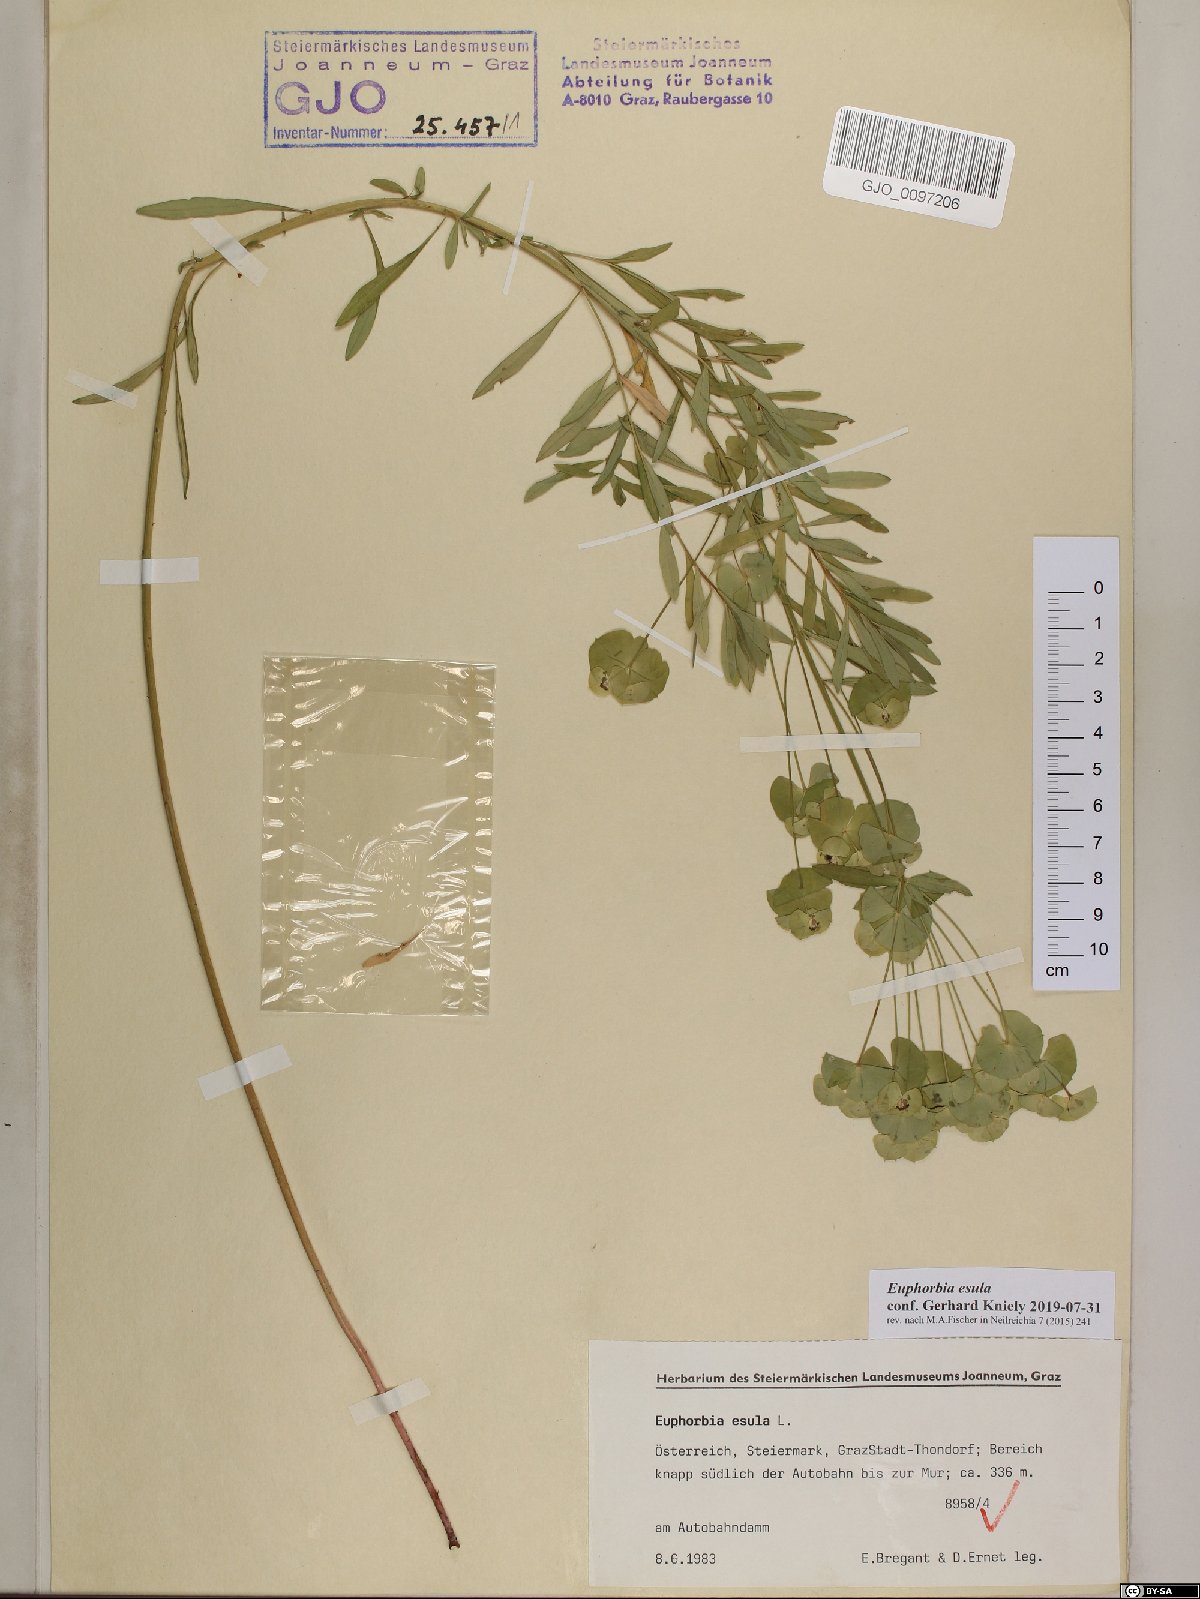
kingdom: Plantae
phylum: Tracheophyta
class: Magnoliopsida
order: Malpighiales
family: Euphorbiaceae
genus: Euphorbia
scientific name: Euphorbia esula
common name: Leafy spurge
